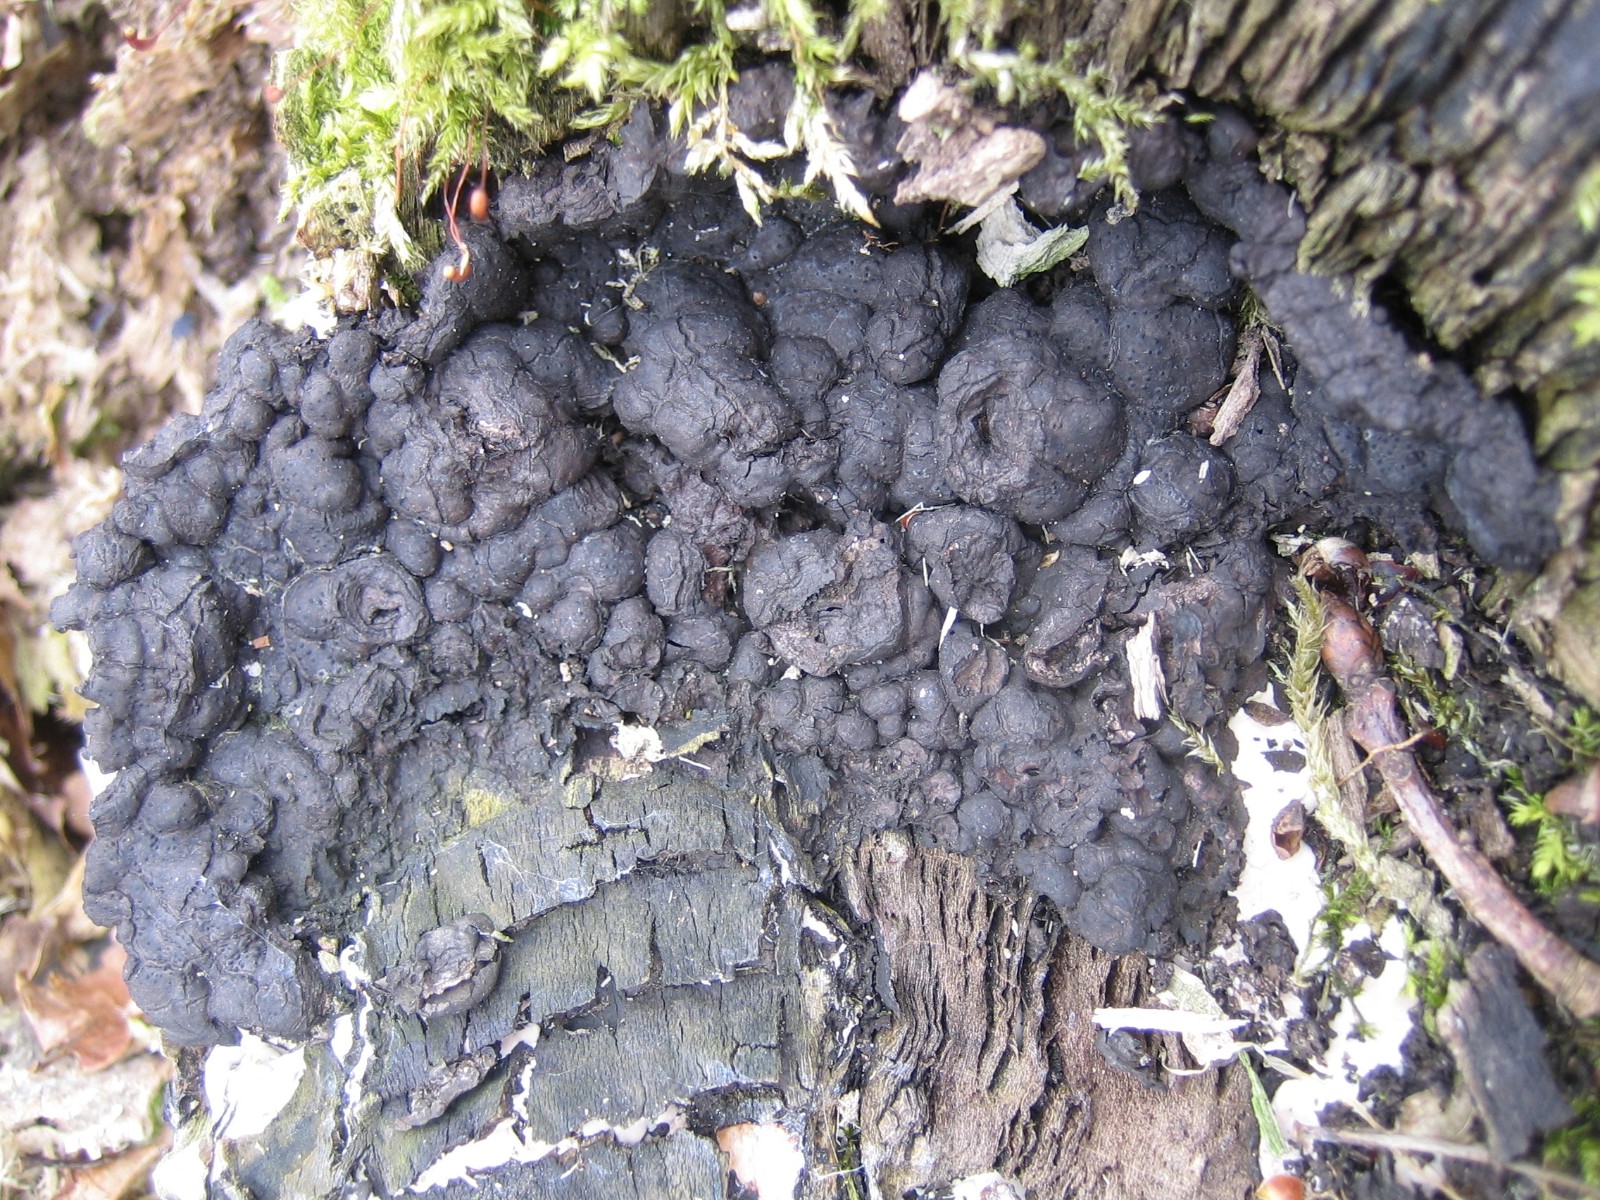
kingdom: Fungi
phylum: Ascomycota
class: Sordariomycetes
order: Xylariales
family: Xylariaceae
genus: Kretzschmaria
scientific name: Kretzschmaria deusta
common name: stor kulsvamp
